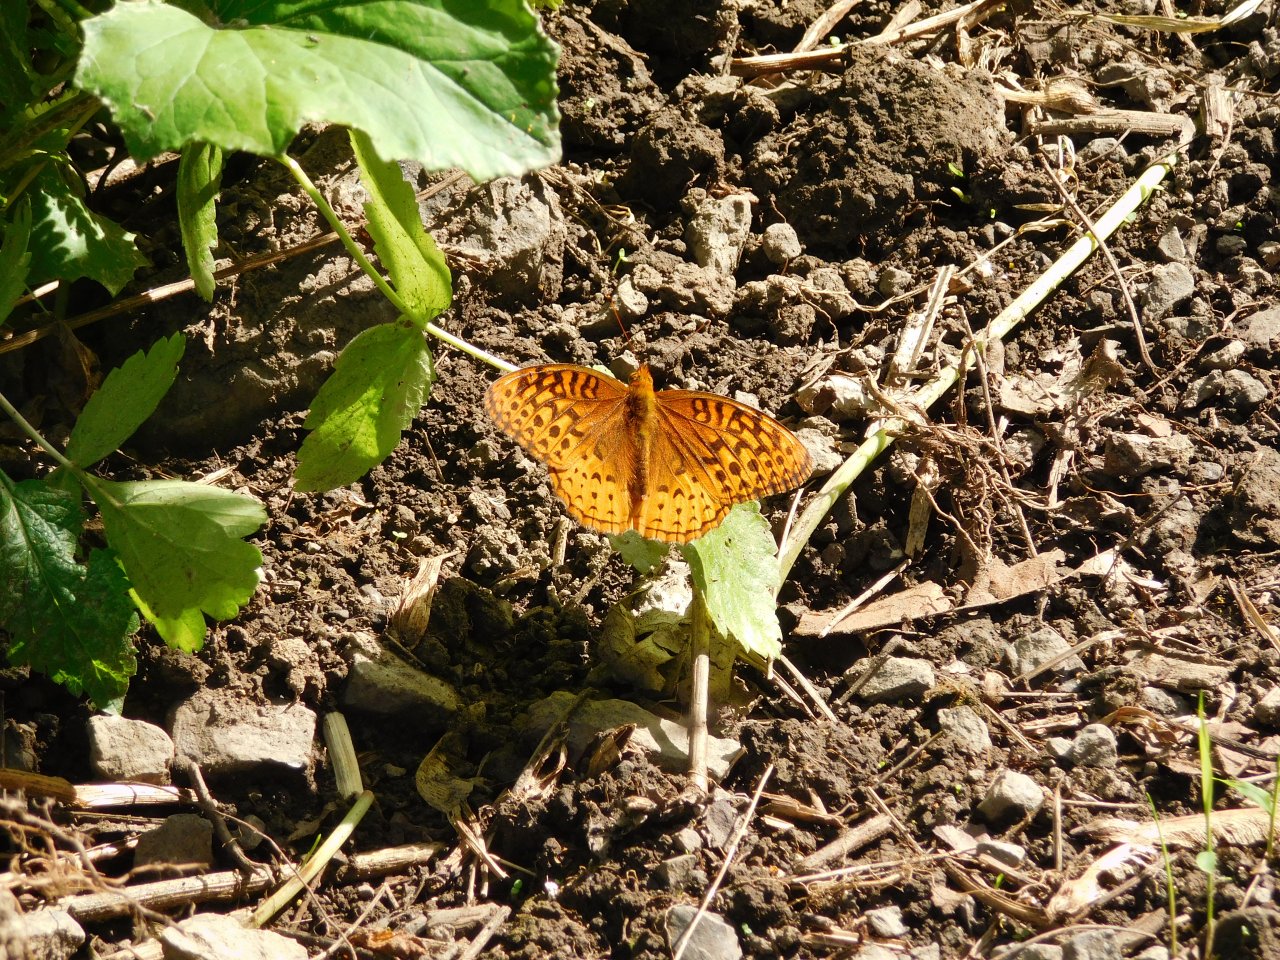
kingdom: Animalia
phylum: Arthropoda
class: Insecta
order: Lepidoptera
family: Nymphalidae
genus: Speyeria
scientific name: Speyeria cybele
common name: Great Spangled Fritillary
